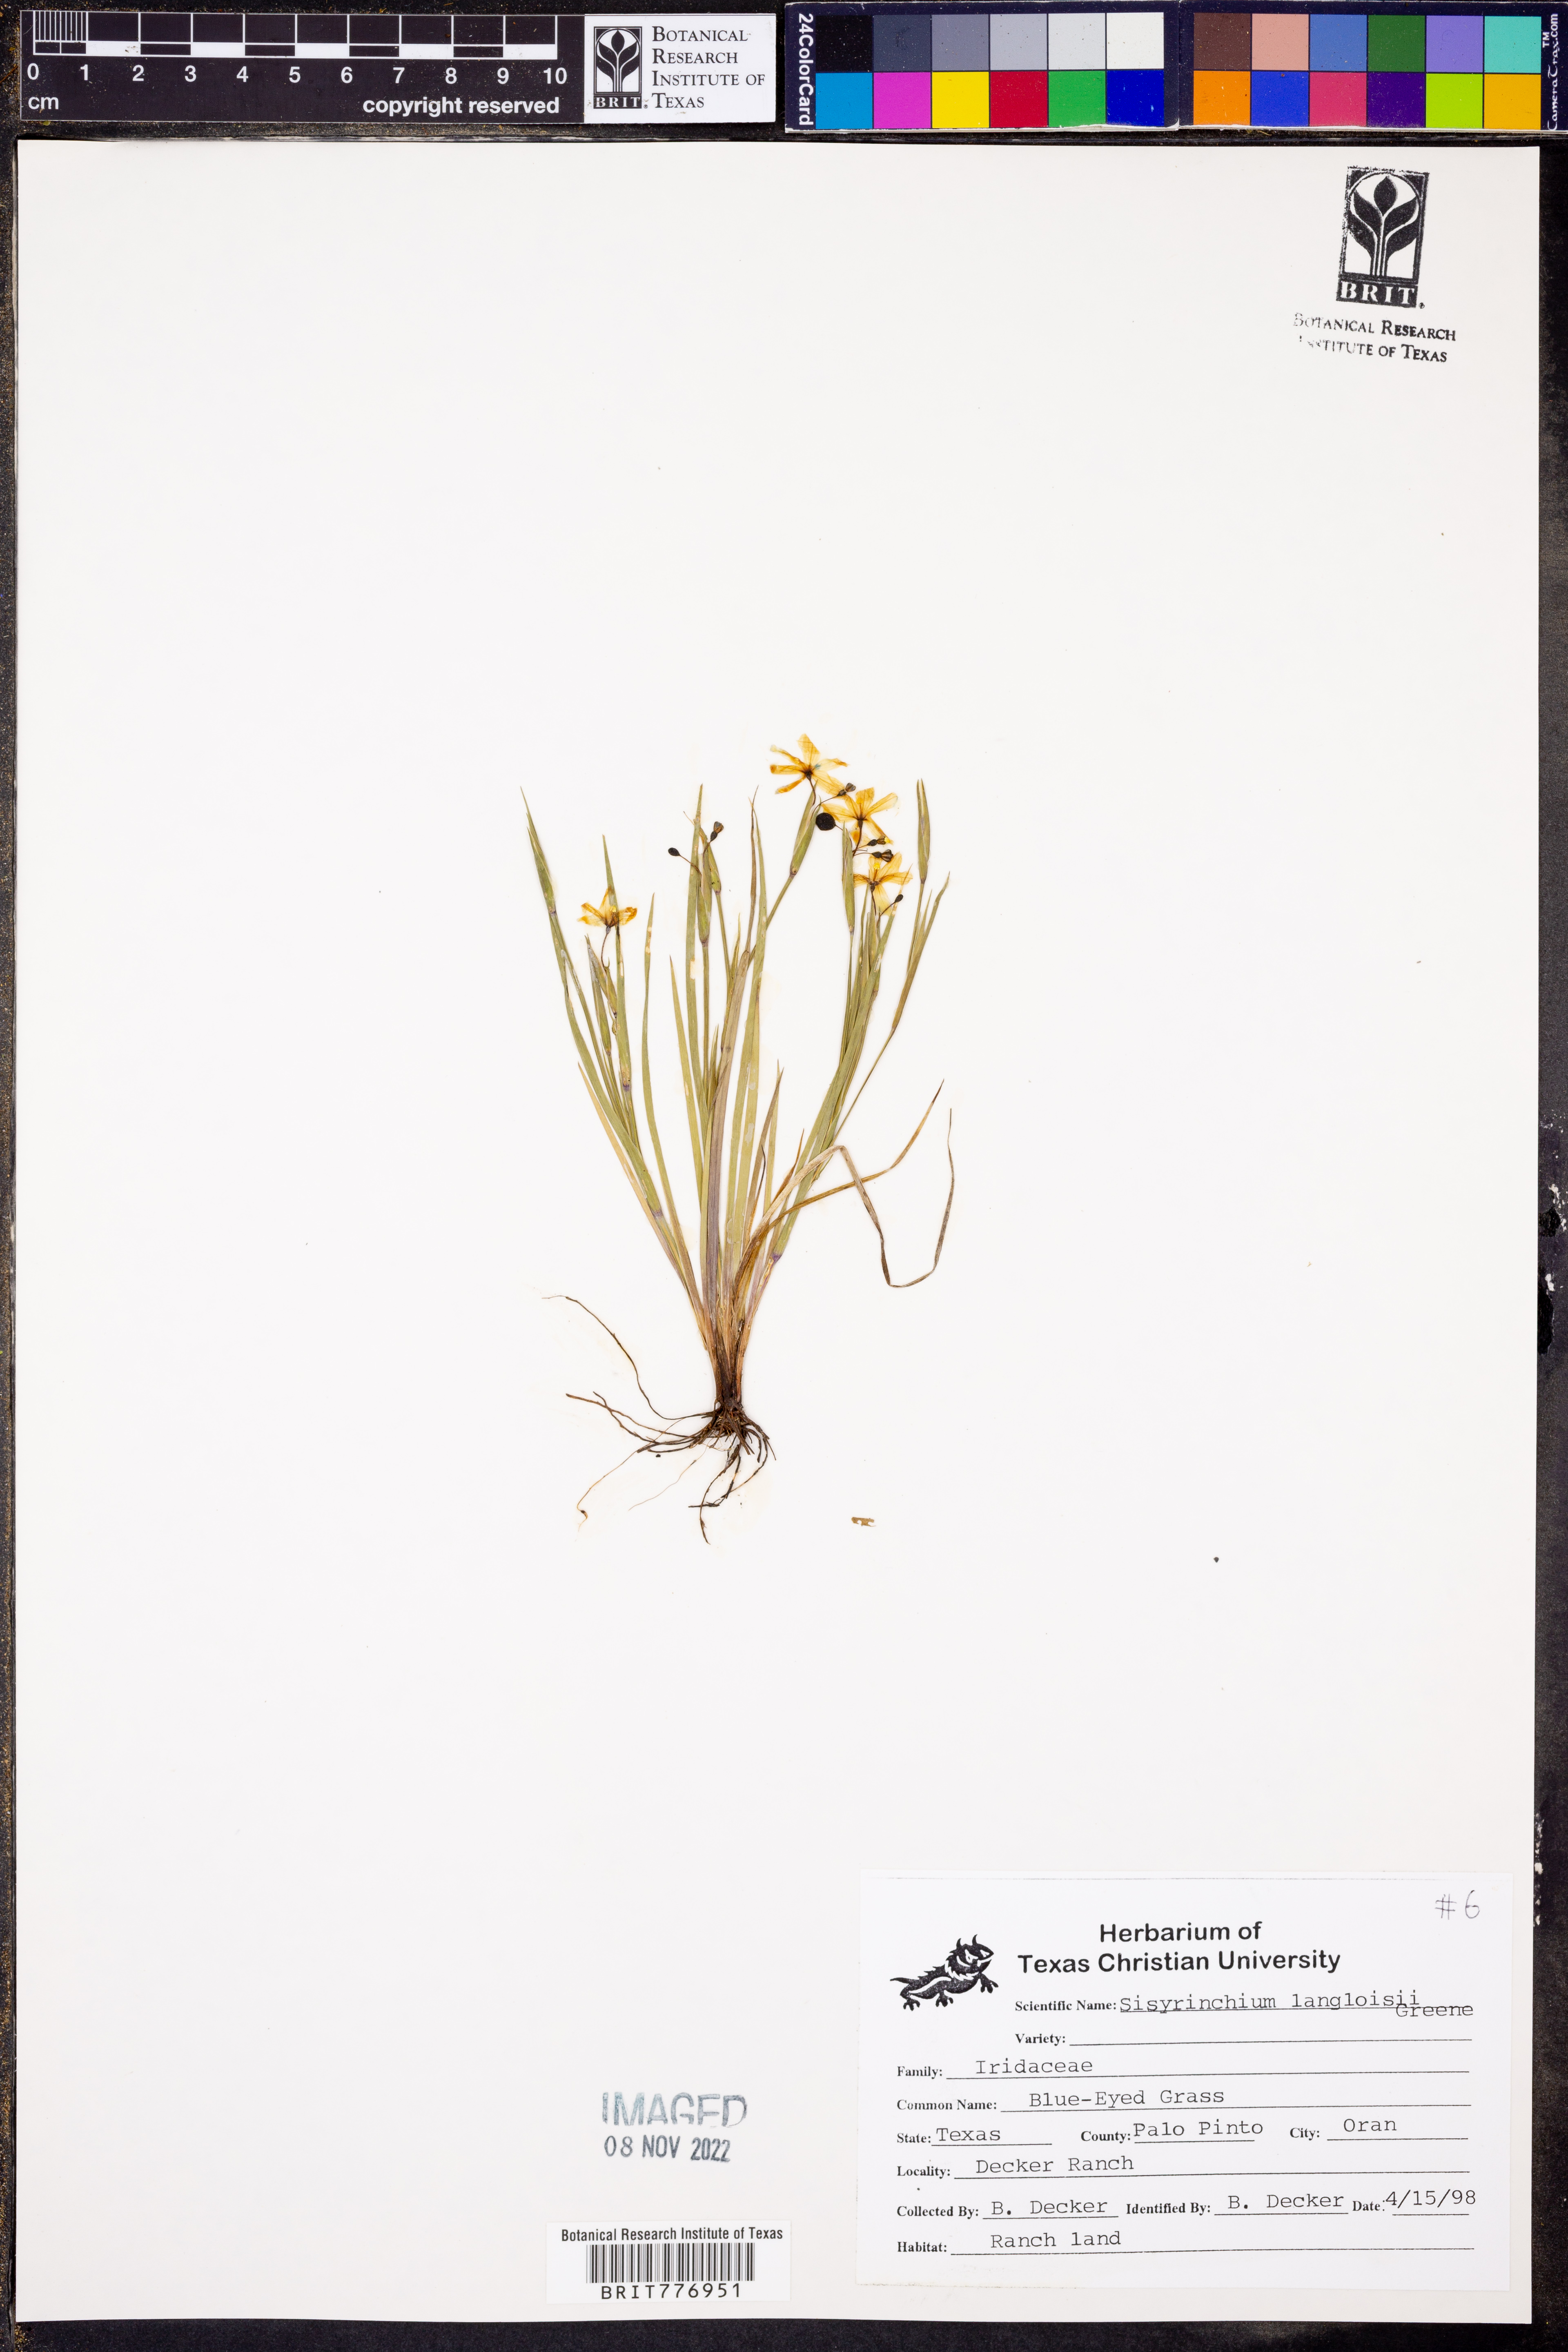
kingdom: Plantae
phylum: Tracheophyta
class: Liliopsida
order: Asparagales
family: Iridaceae
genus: Sisyrinchium
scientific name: Sisyrinchium langloisii
